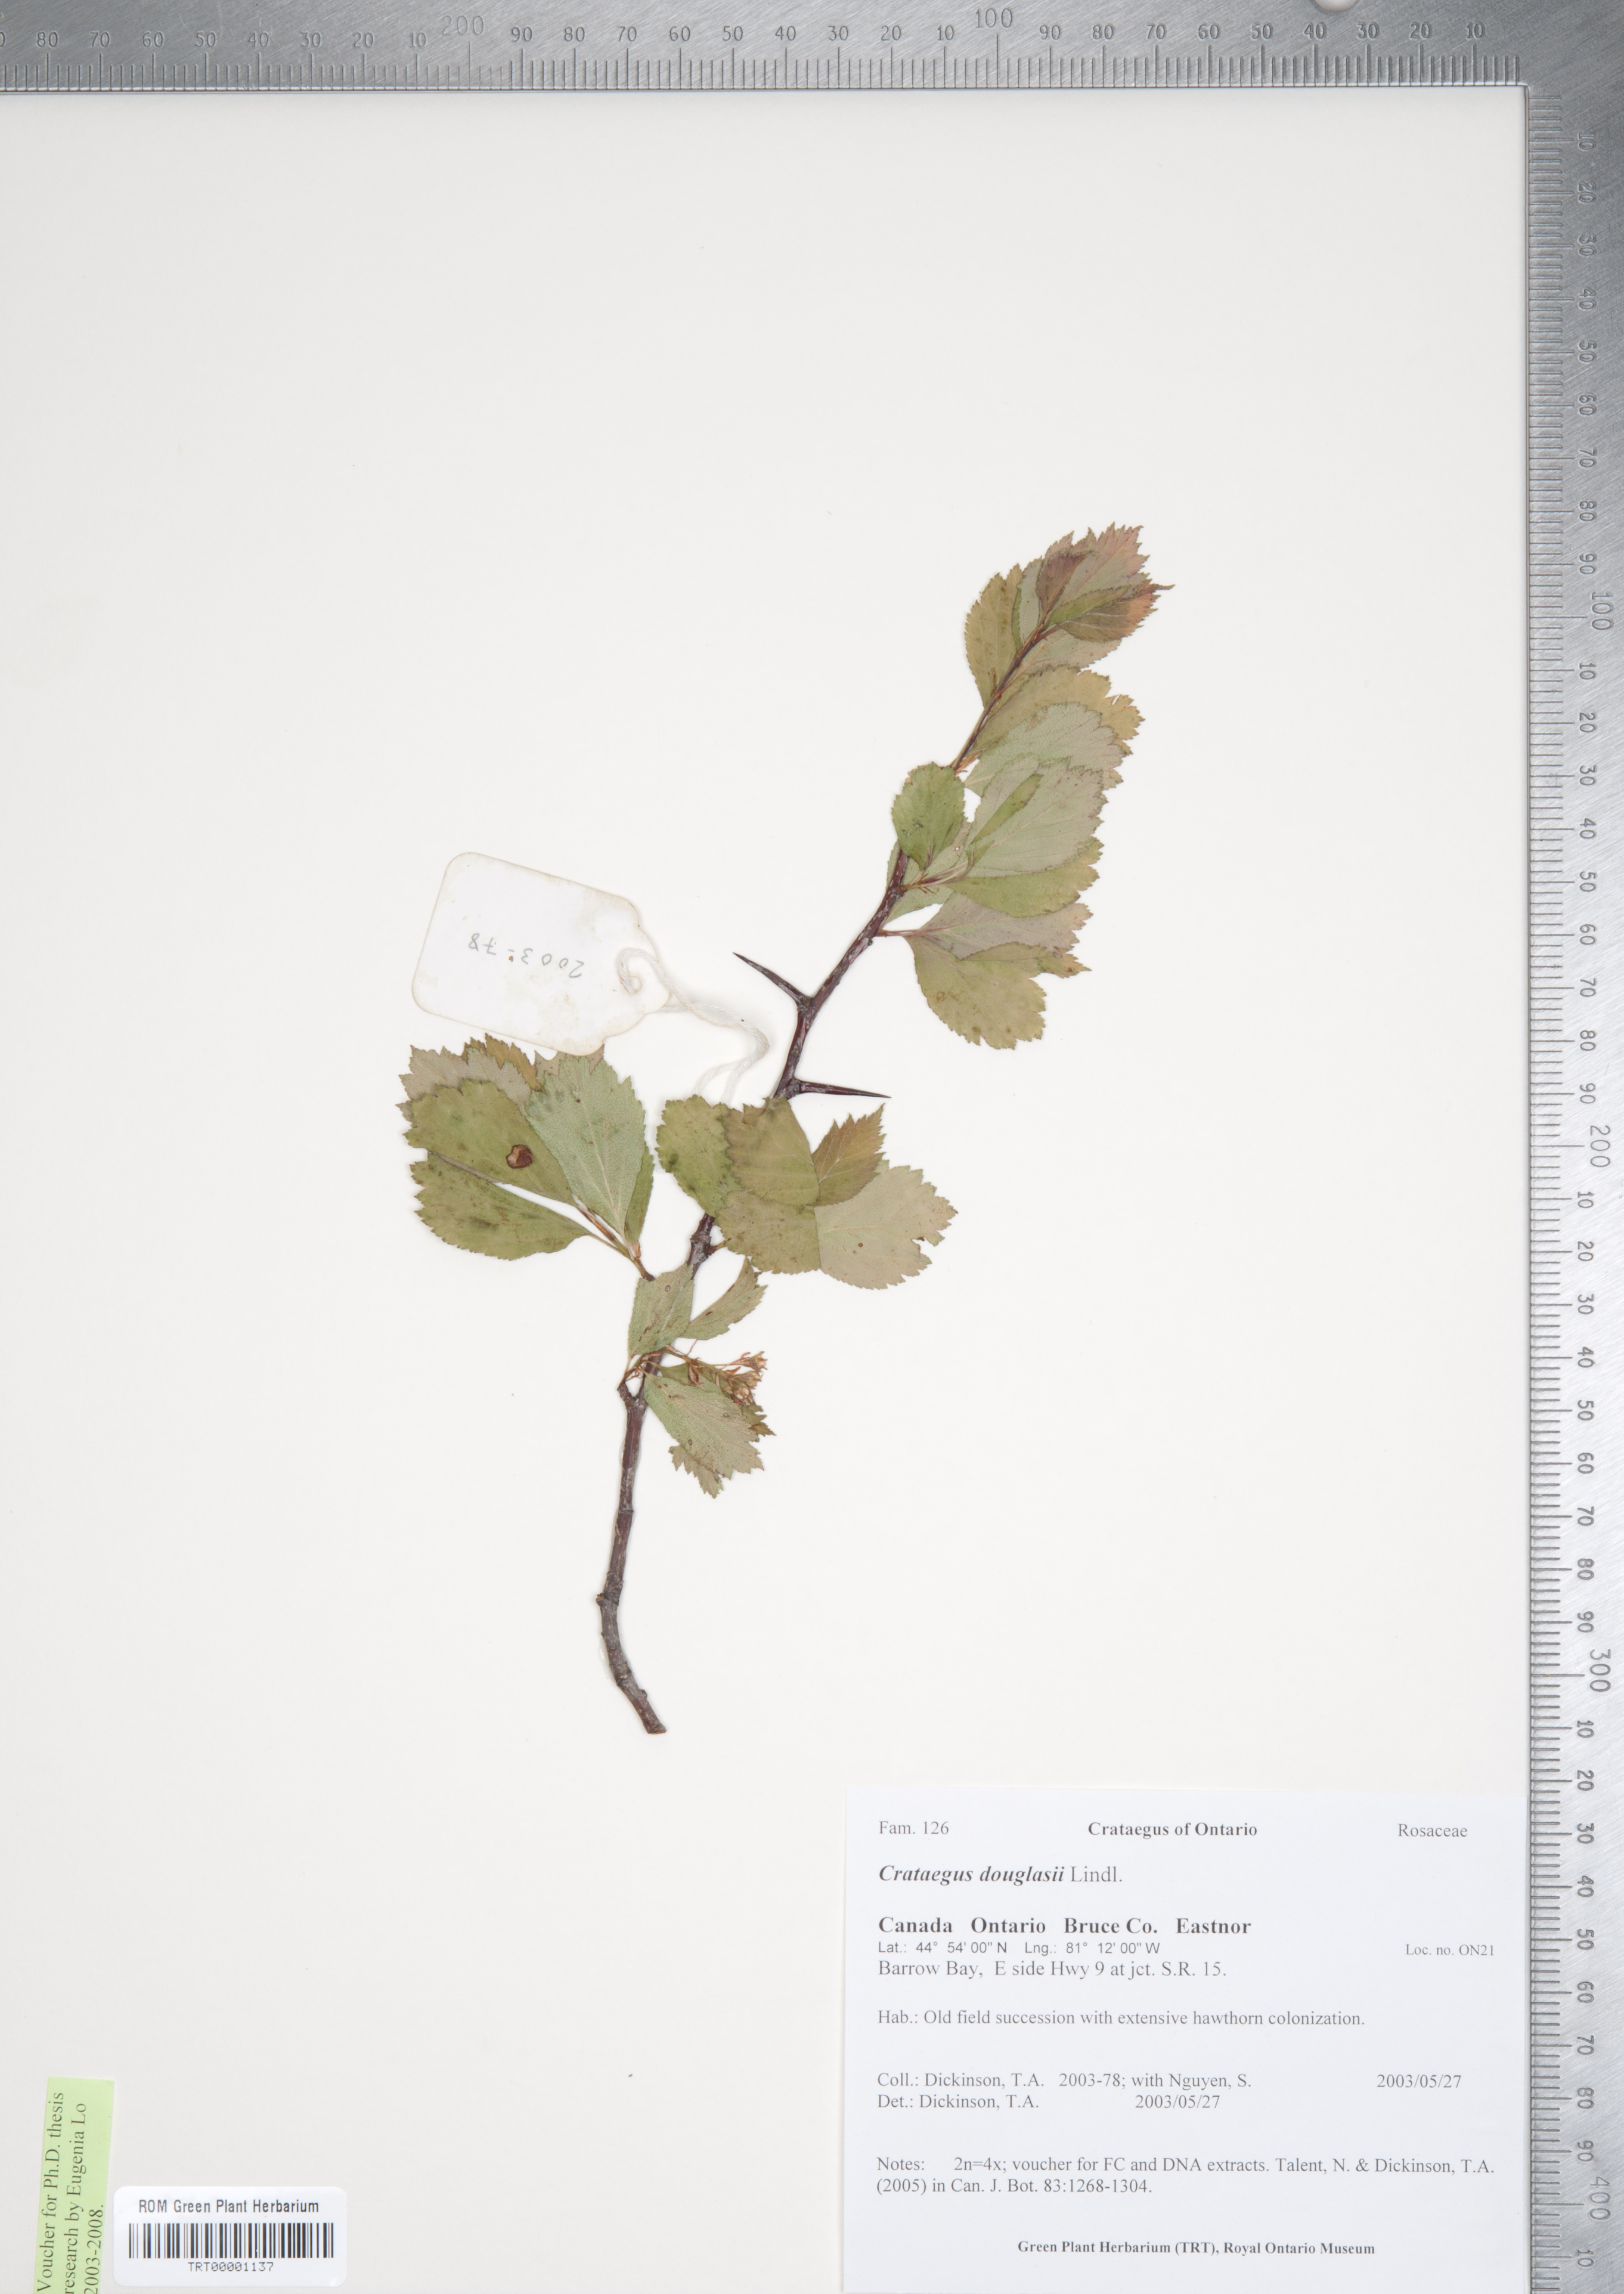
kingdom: Plantae
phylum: Tracheophyta
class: Magnoliopsida
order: Rosales
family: Rosaceae
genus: Crataegus
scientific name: Crataegus douglasii
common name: Black hawthorn
